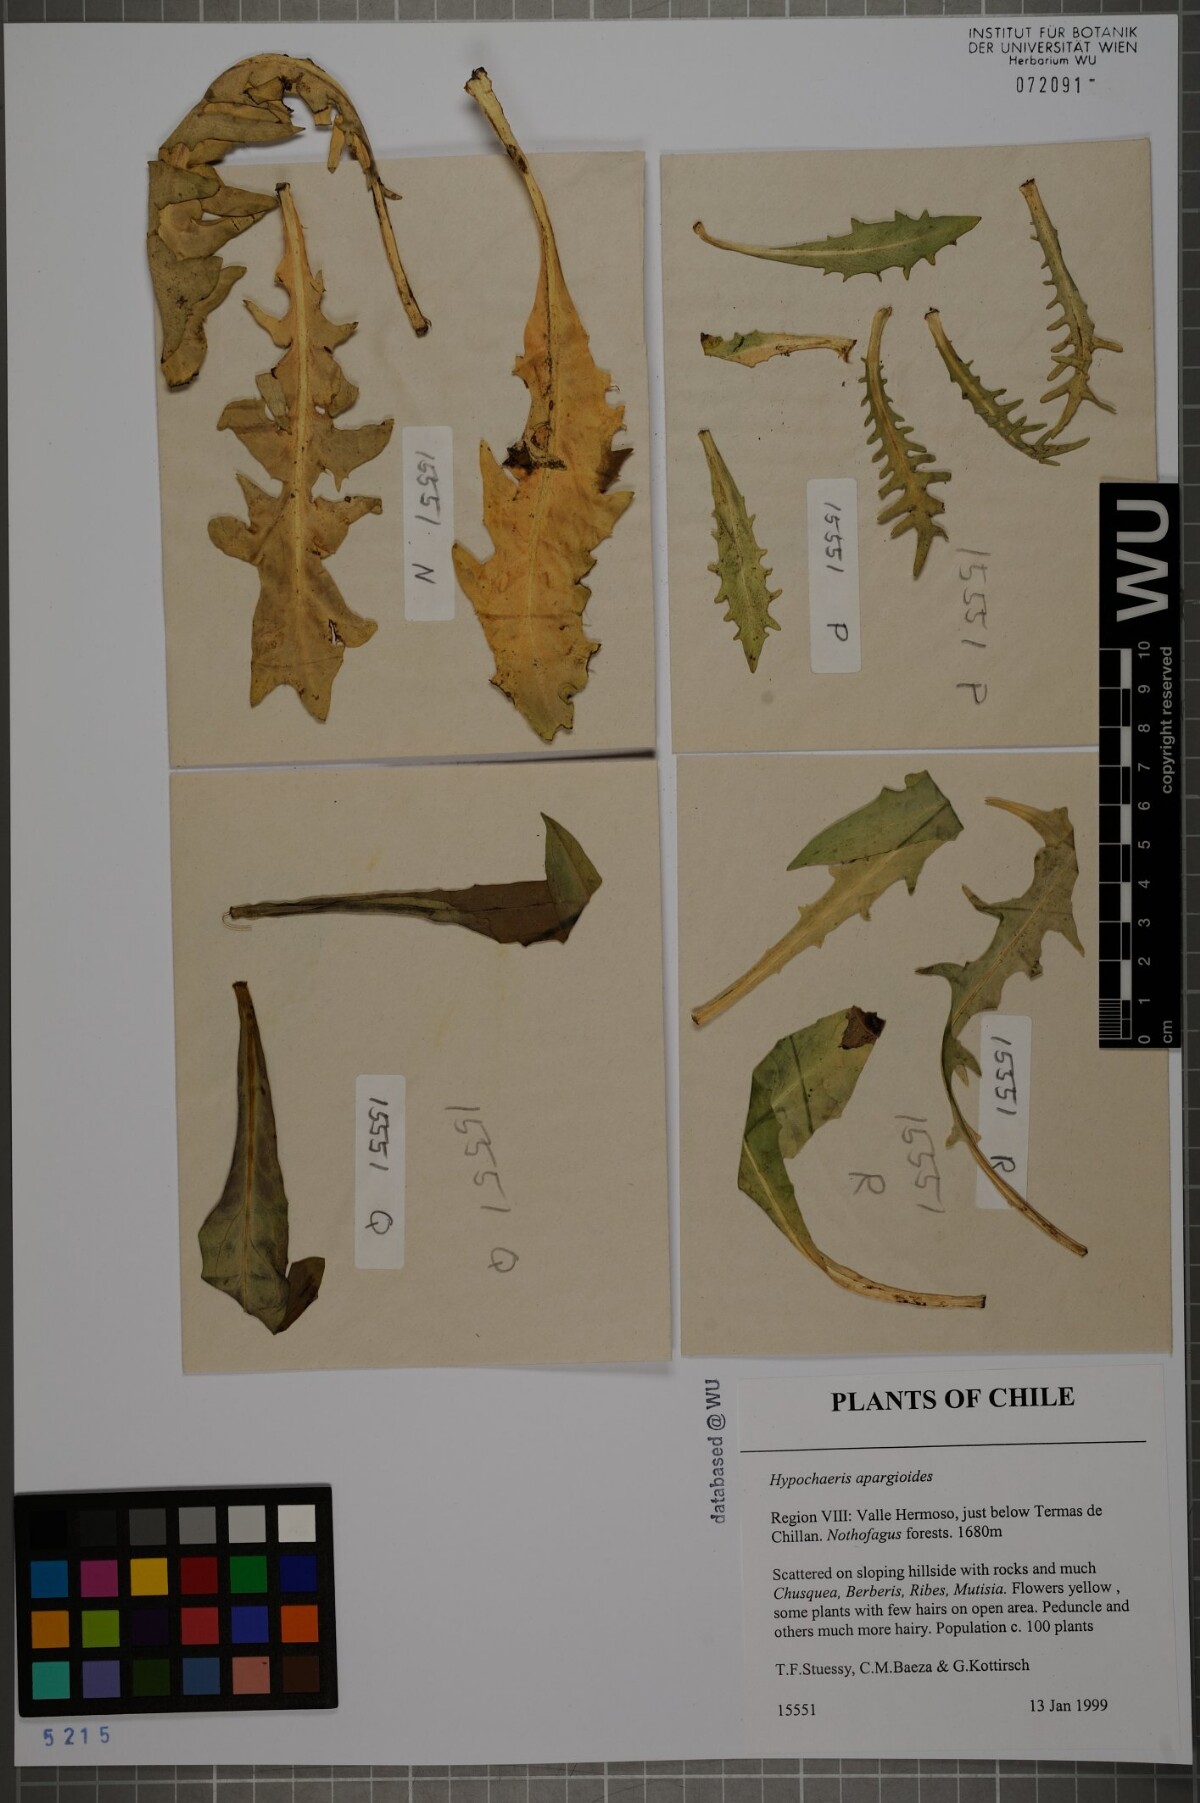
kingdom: Plantae
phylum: Tracheophyta
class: Magnoliopsida
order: Asterales
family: Asteraceae
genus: Hypochaeris
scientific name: Hypochaeris apargioides
